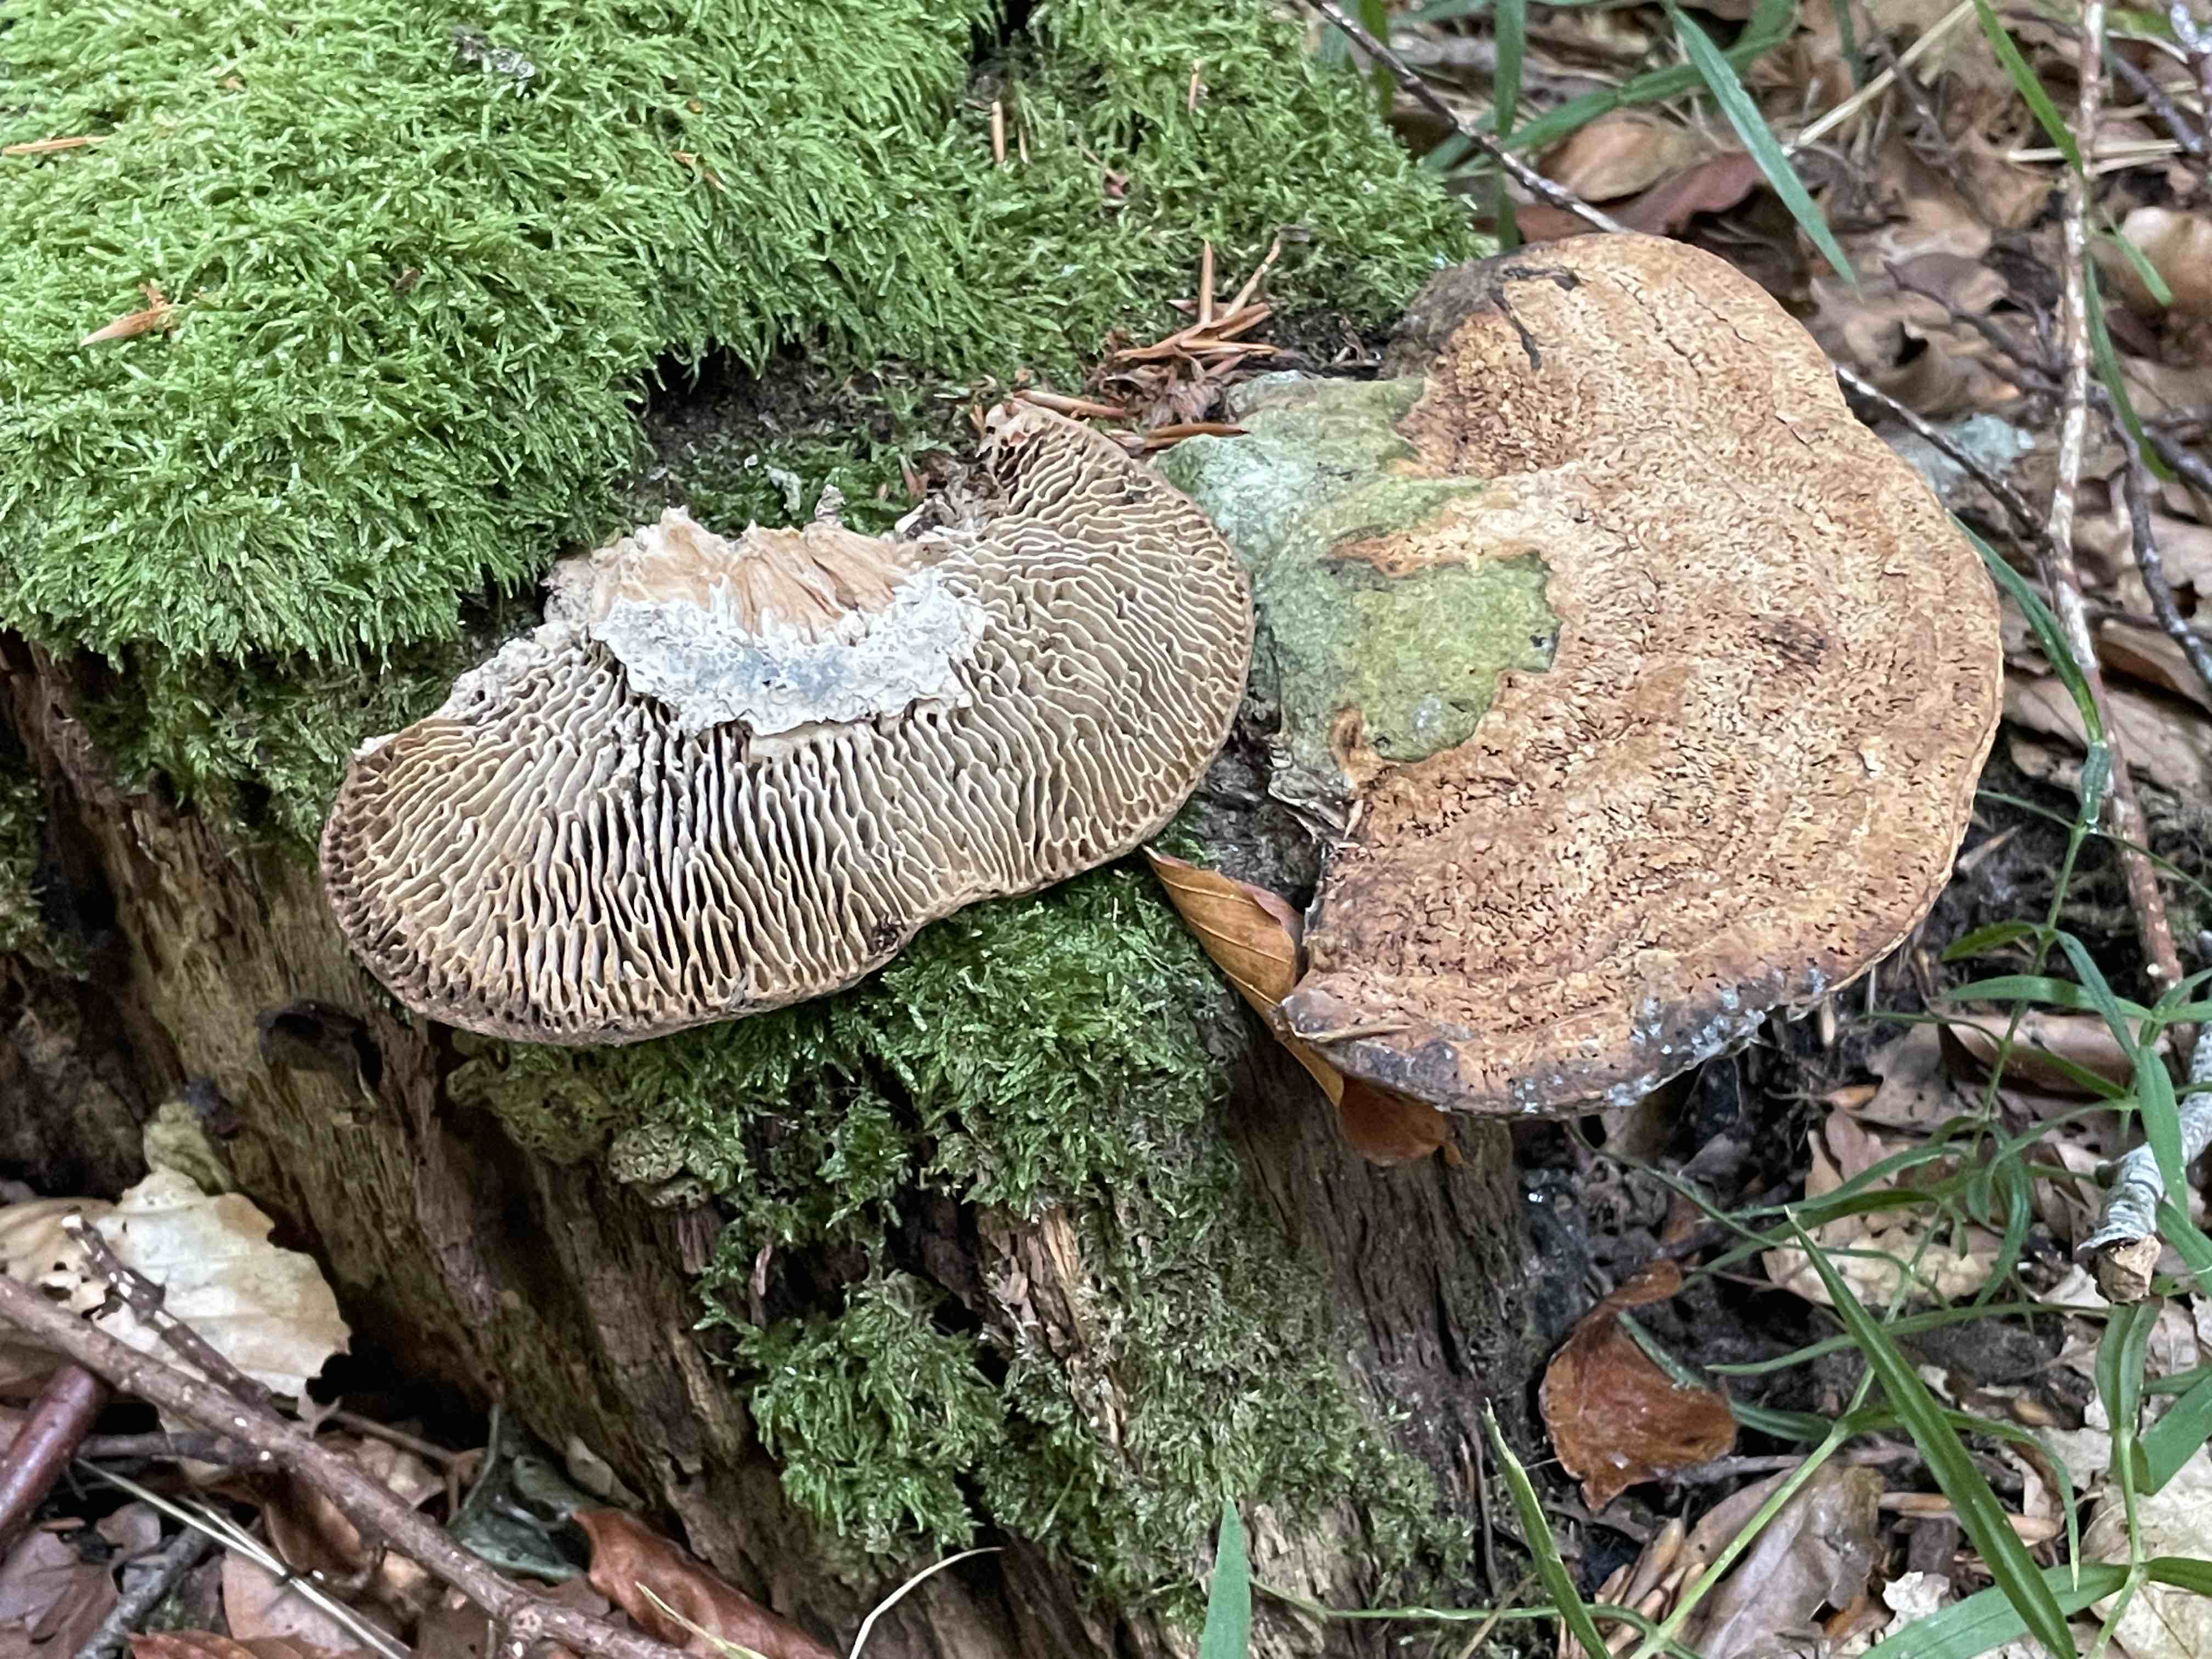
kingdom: Fungi
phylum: Basidiomycota
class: Agaricomycetes
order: Polyporales
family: Fomitopsidaceae
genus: Daedalea
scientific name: Daedalea quercina
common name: ege-labyrintsvamp
